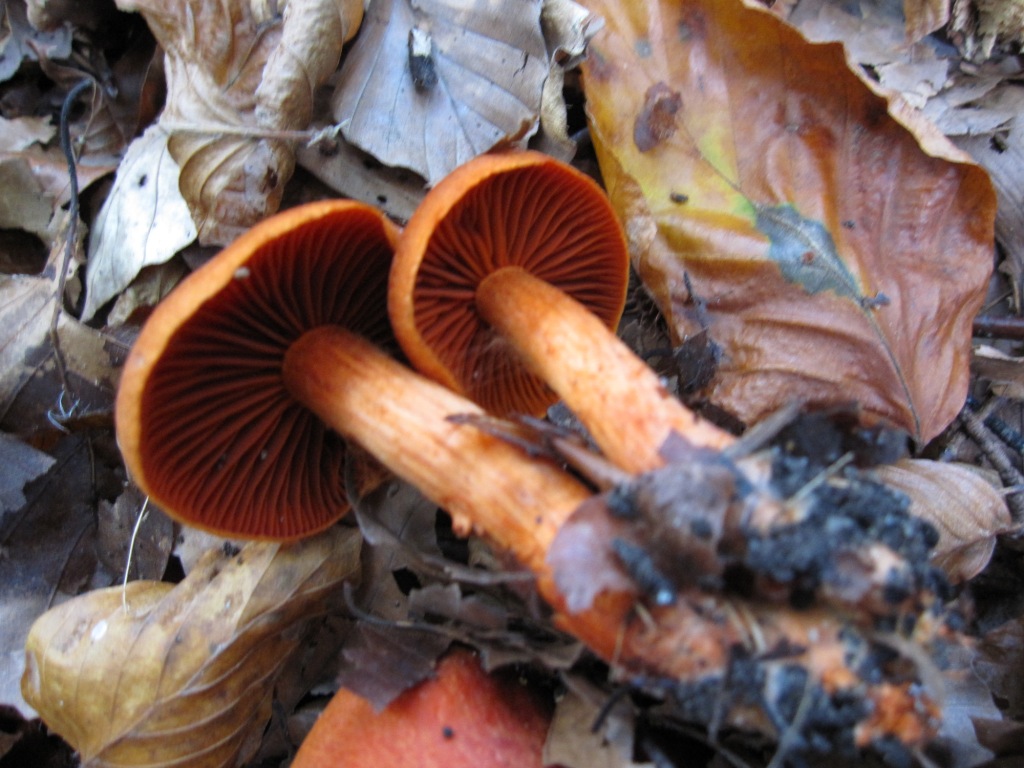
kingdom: Fungi
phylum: Basidiomycota
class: Agaricomycetes
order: Agaricales
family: Cortinariaceae
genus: Cortinarius
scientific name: Cortinarius cinnabarinus
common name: cinnober-slørhat
